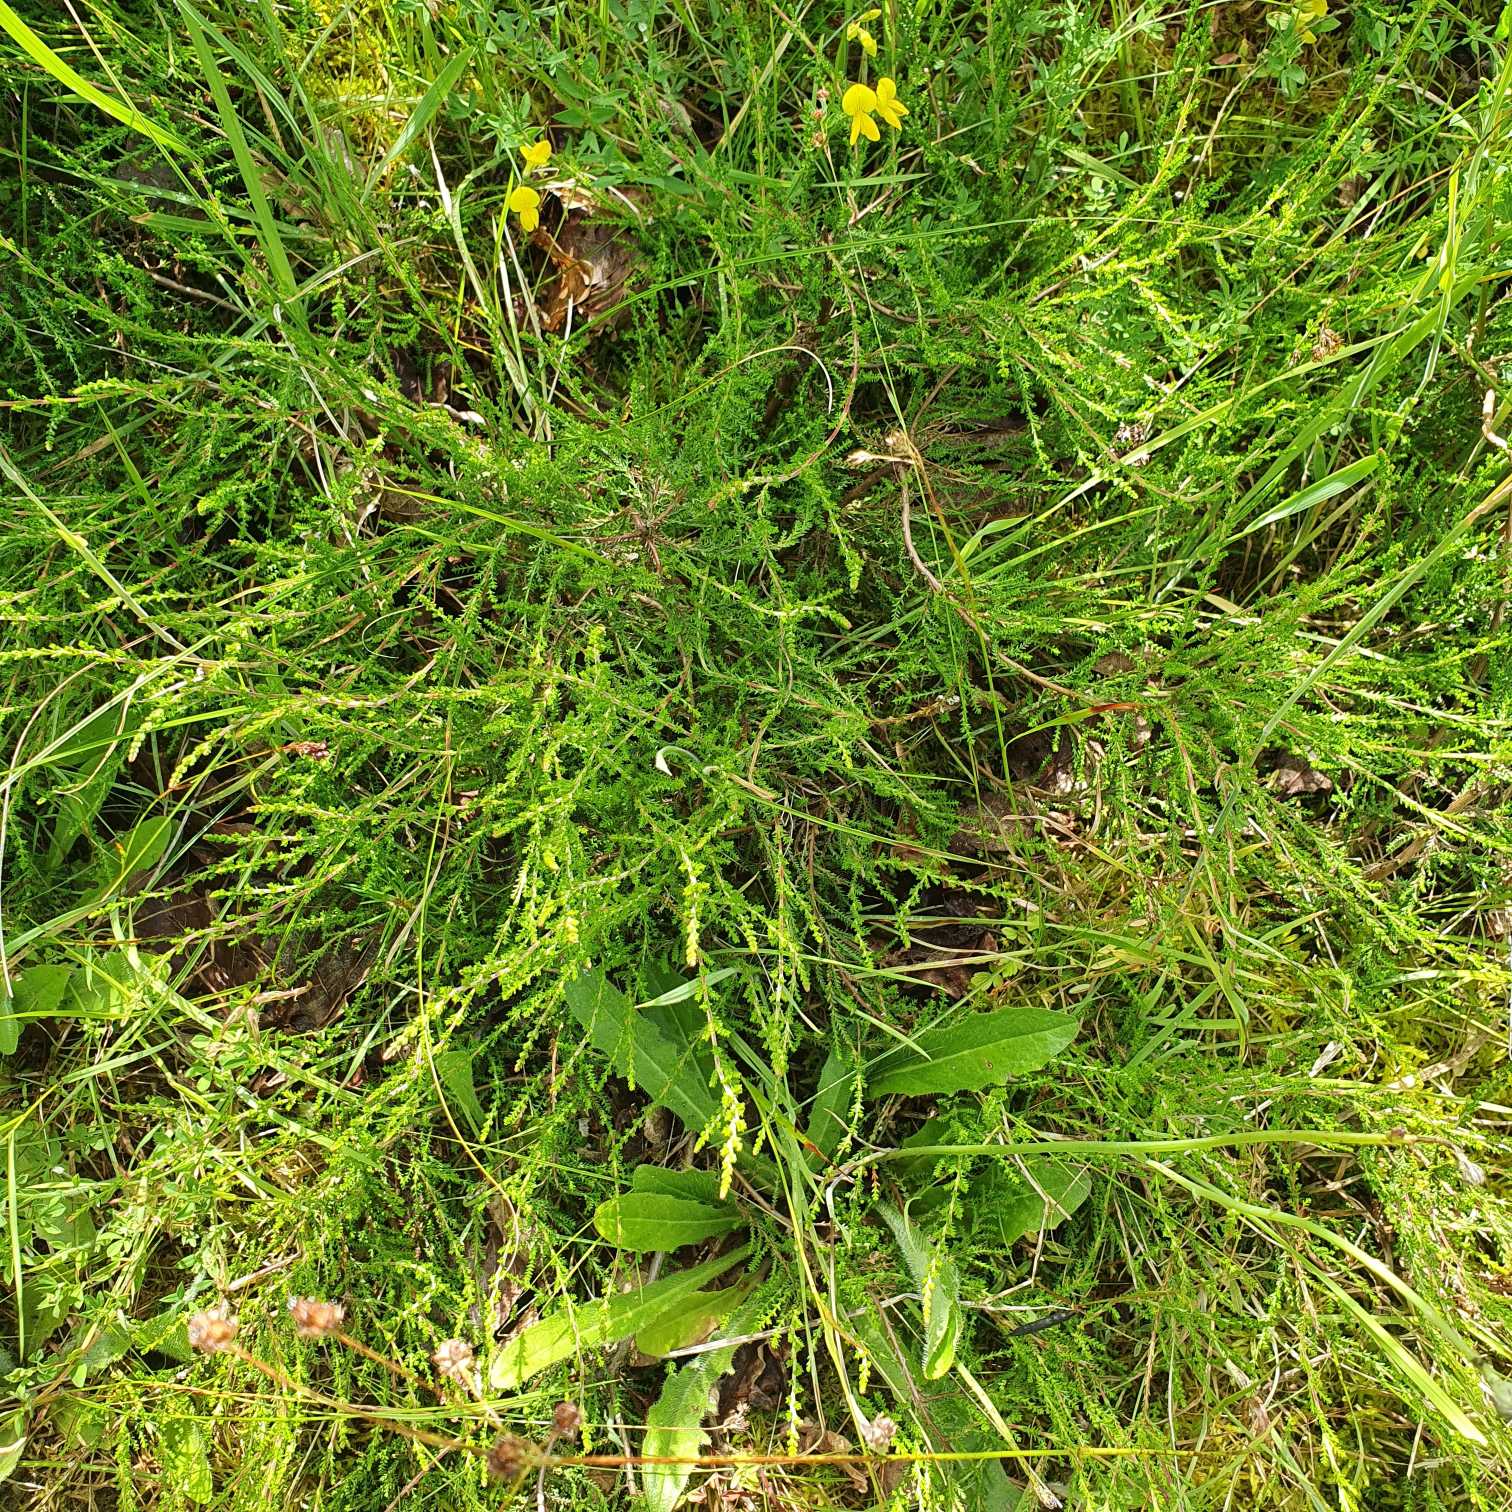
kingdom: Plantae
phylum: Tracheophyta
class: Magnoliopsida
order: Ericales
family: Ericaceae
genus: Calluna
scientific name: Calluna vulgaris
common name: Hedelyng
